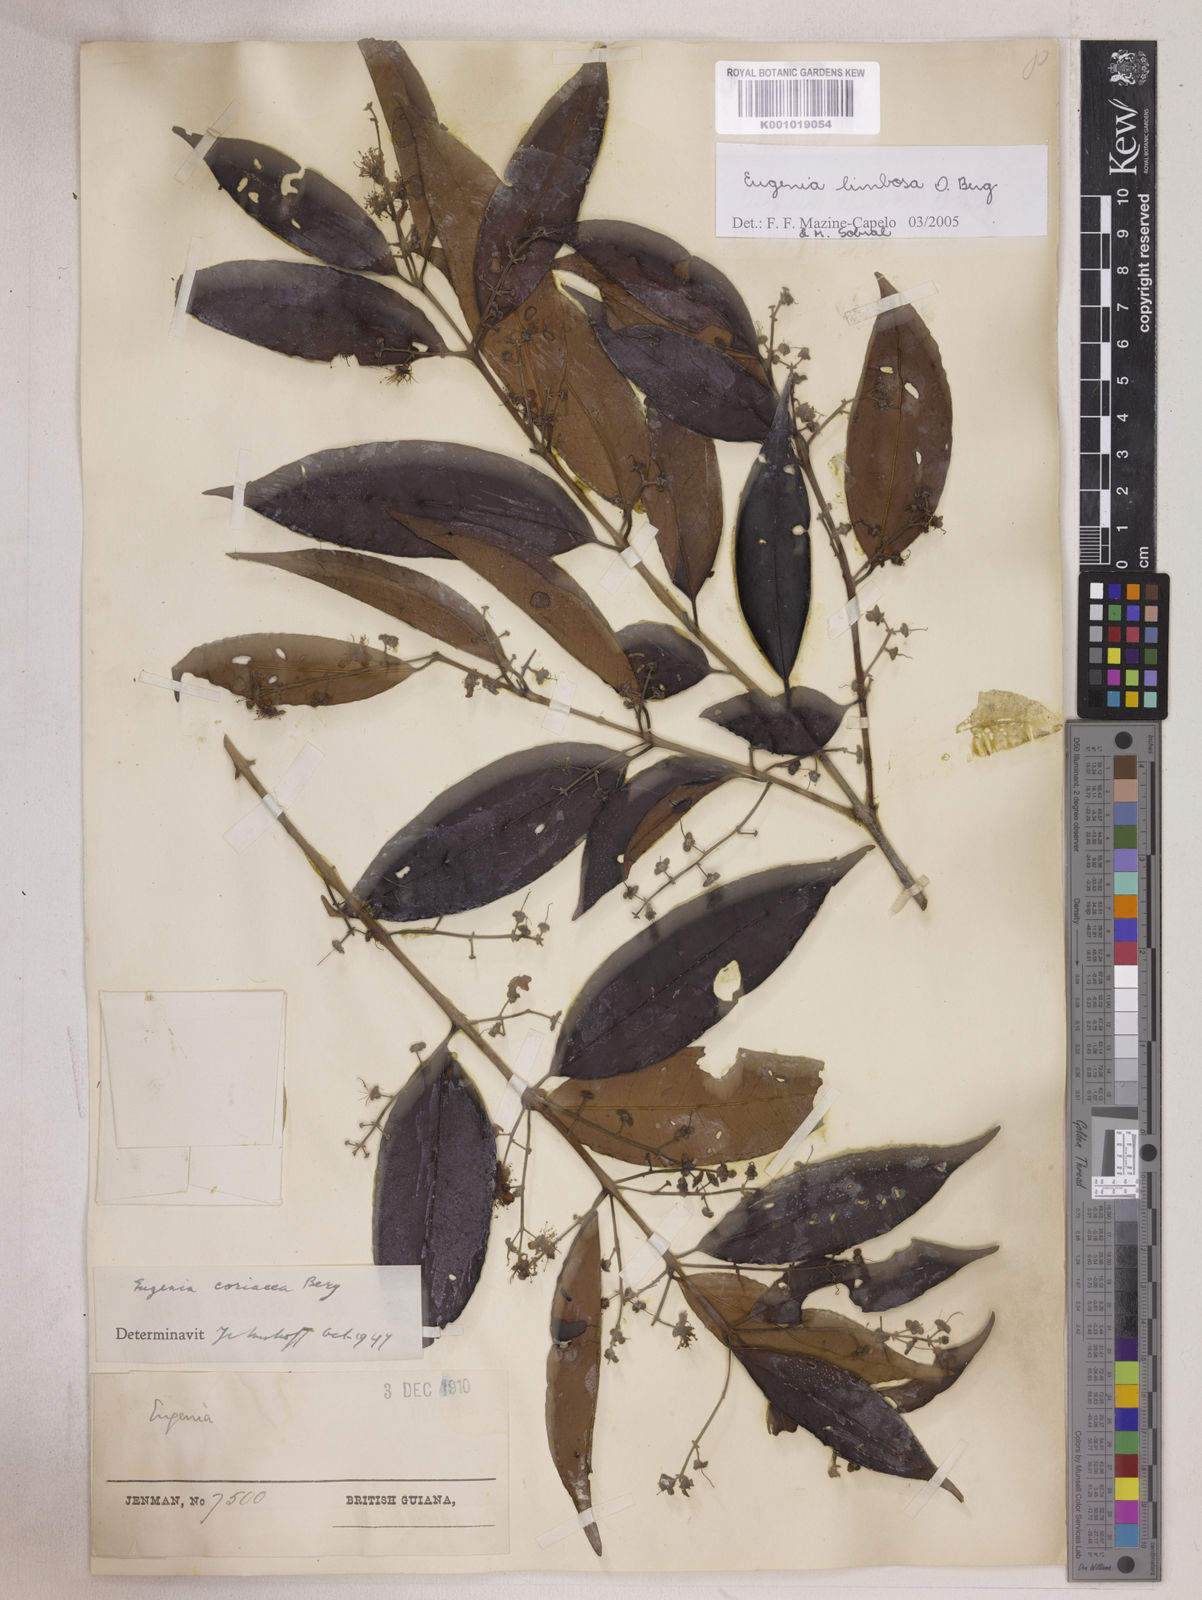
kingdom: Plantae
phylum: Tracheophyta
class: Magnoliopsida
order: Myrtales
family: Myrtaceae
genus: Eugenia
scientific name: Eugenia limbosa
